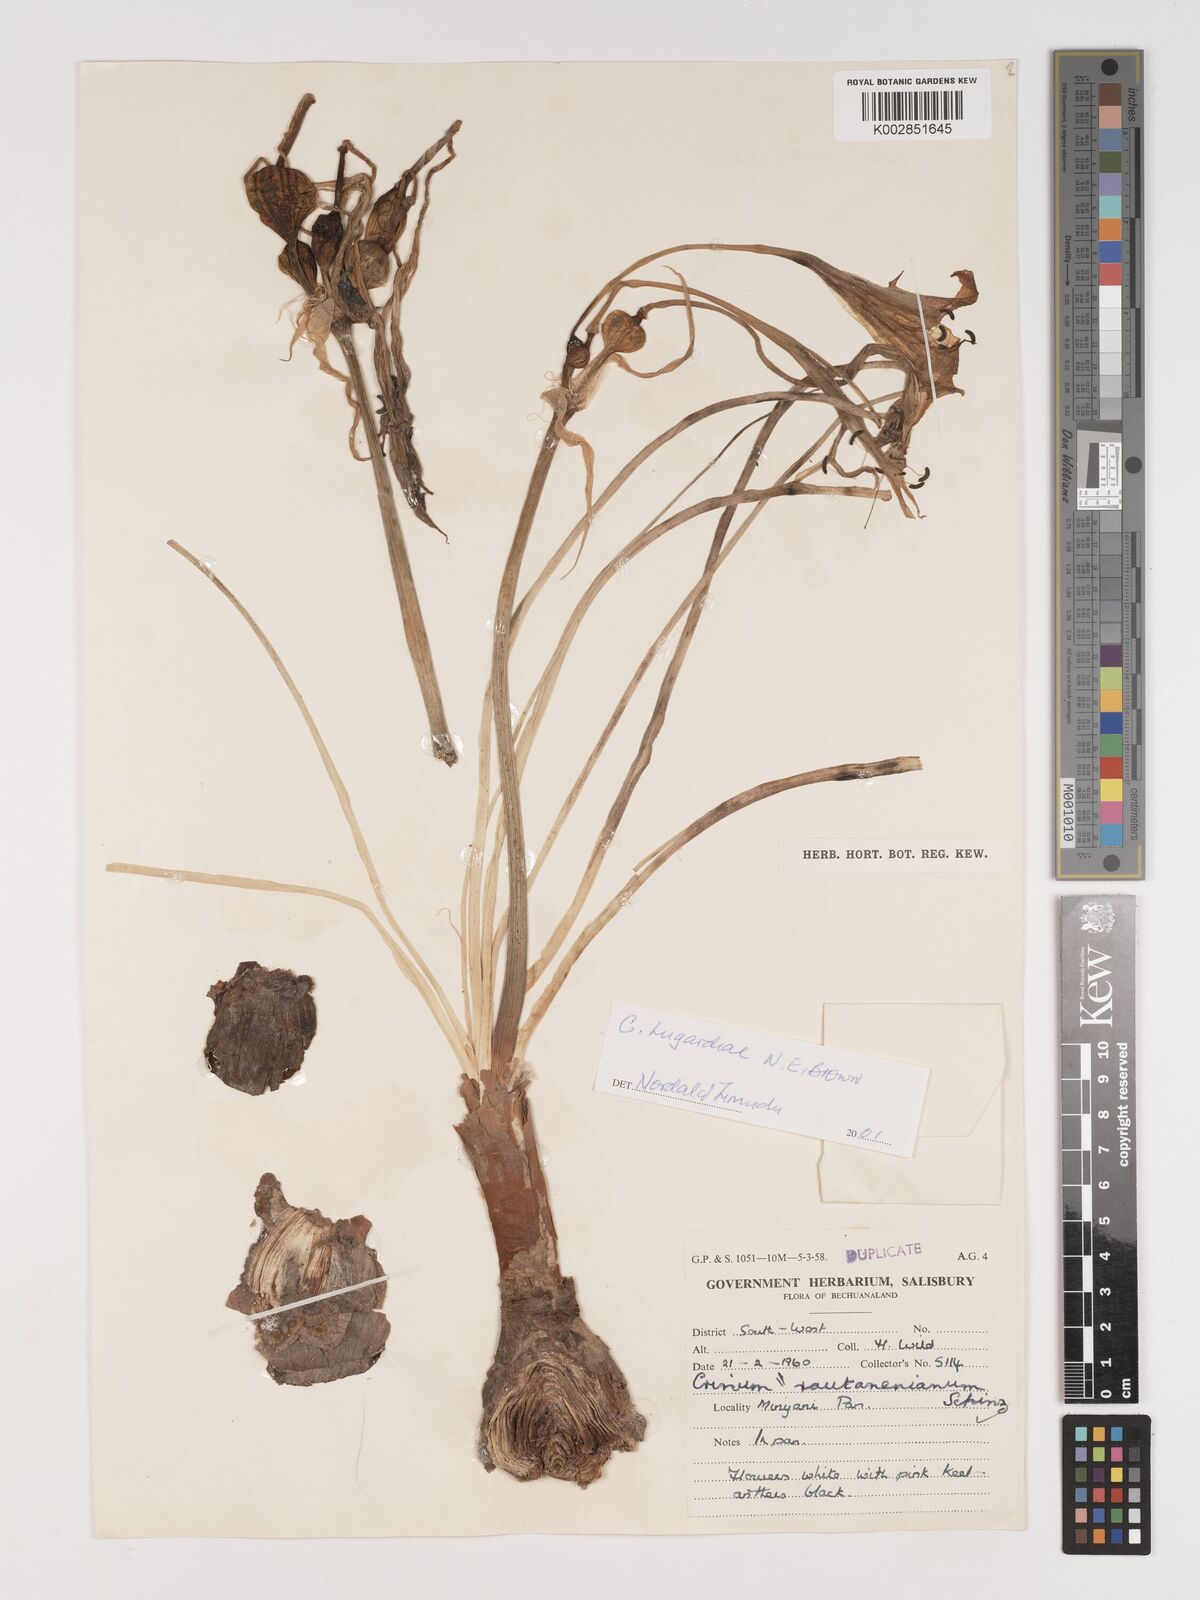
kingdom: Plantae
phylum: Tracheophyta
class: Liliopsida
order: Asparagales
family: Amaryllidaceae
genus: Crinum
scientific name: Crinum lugardiae
